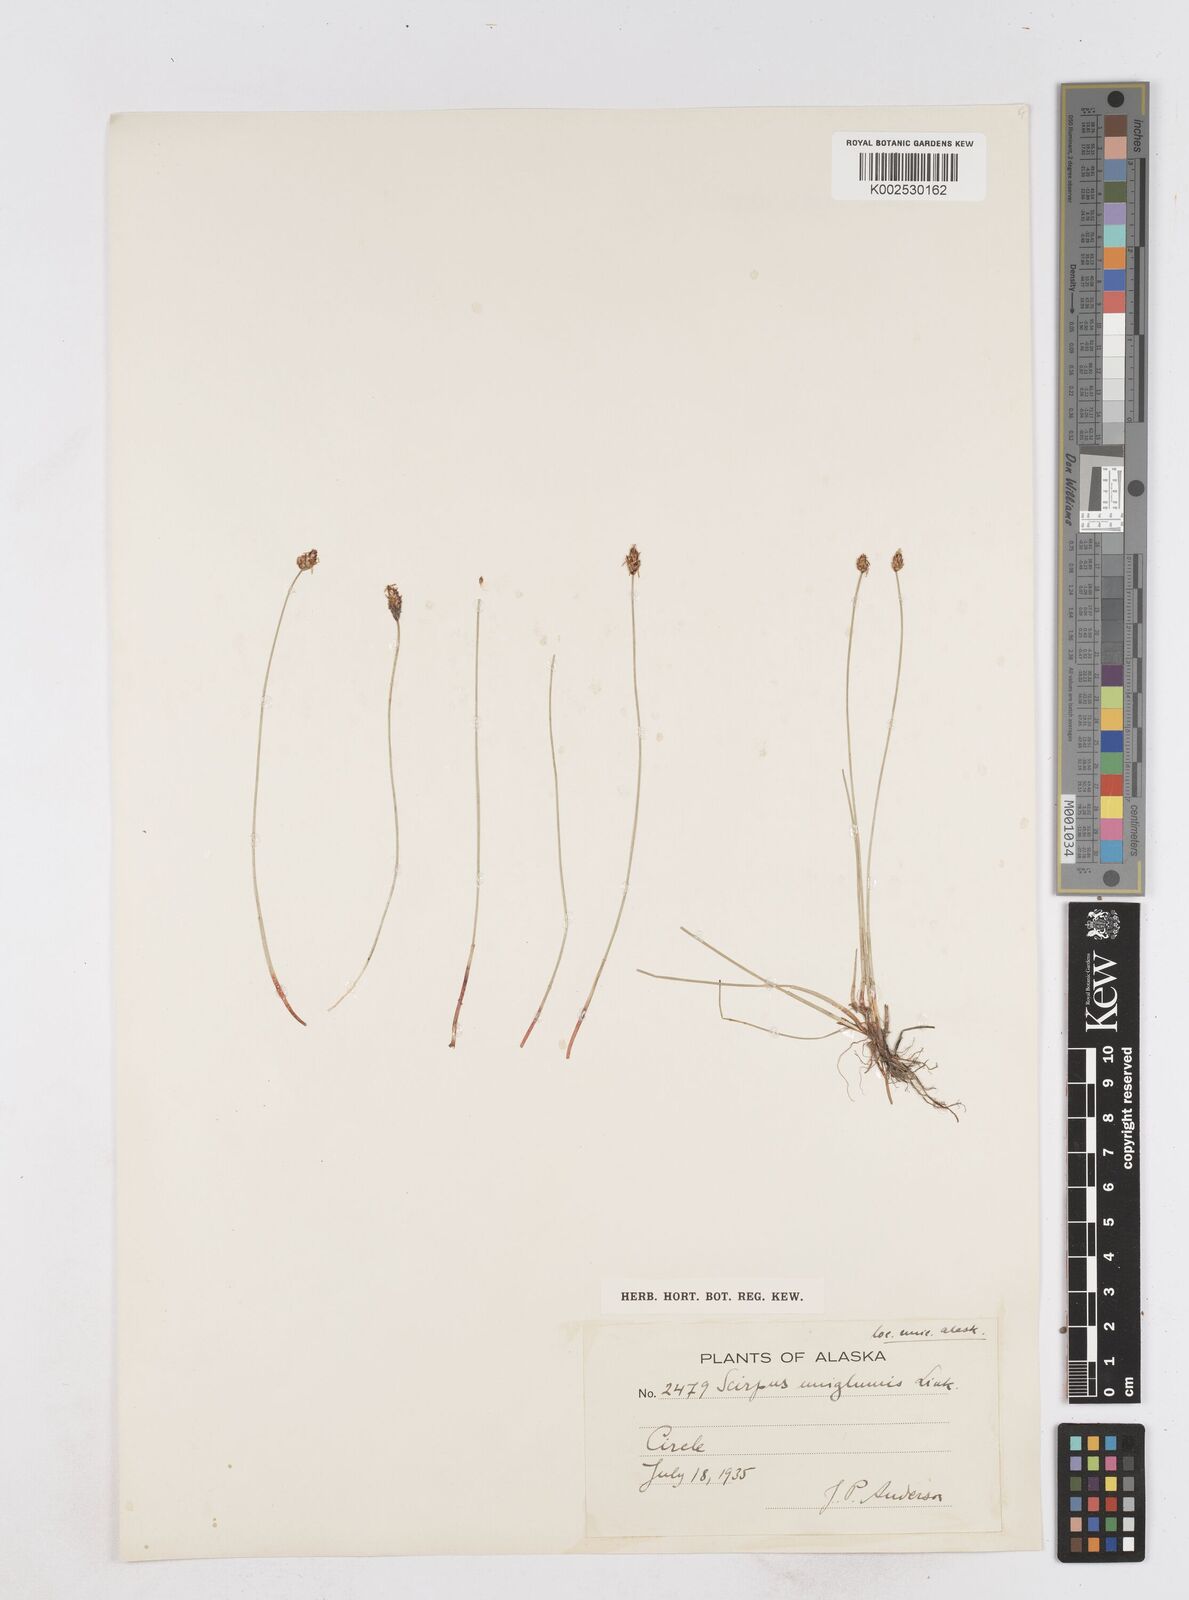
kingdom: Plantae
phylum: Tracheophyta
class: Liliopsida
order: Poales
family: Cyperaceae
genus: Eleocharis
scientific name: Eleocharis uniglumis
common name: Slender spike-rush
